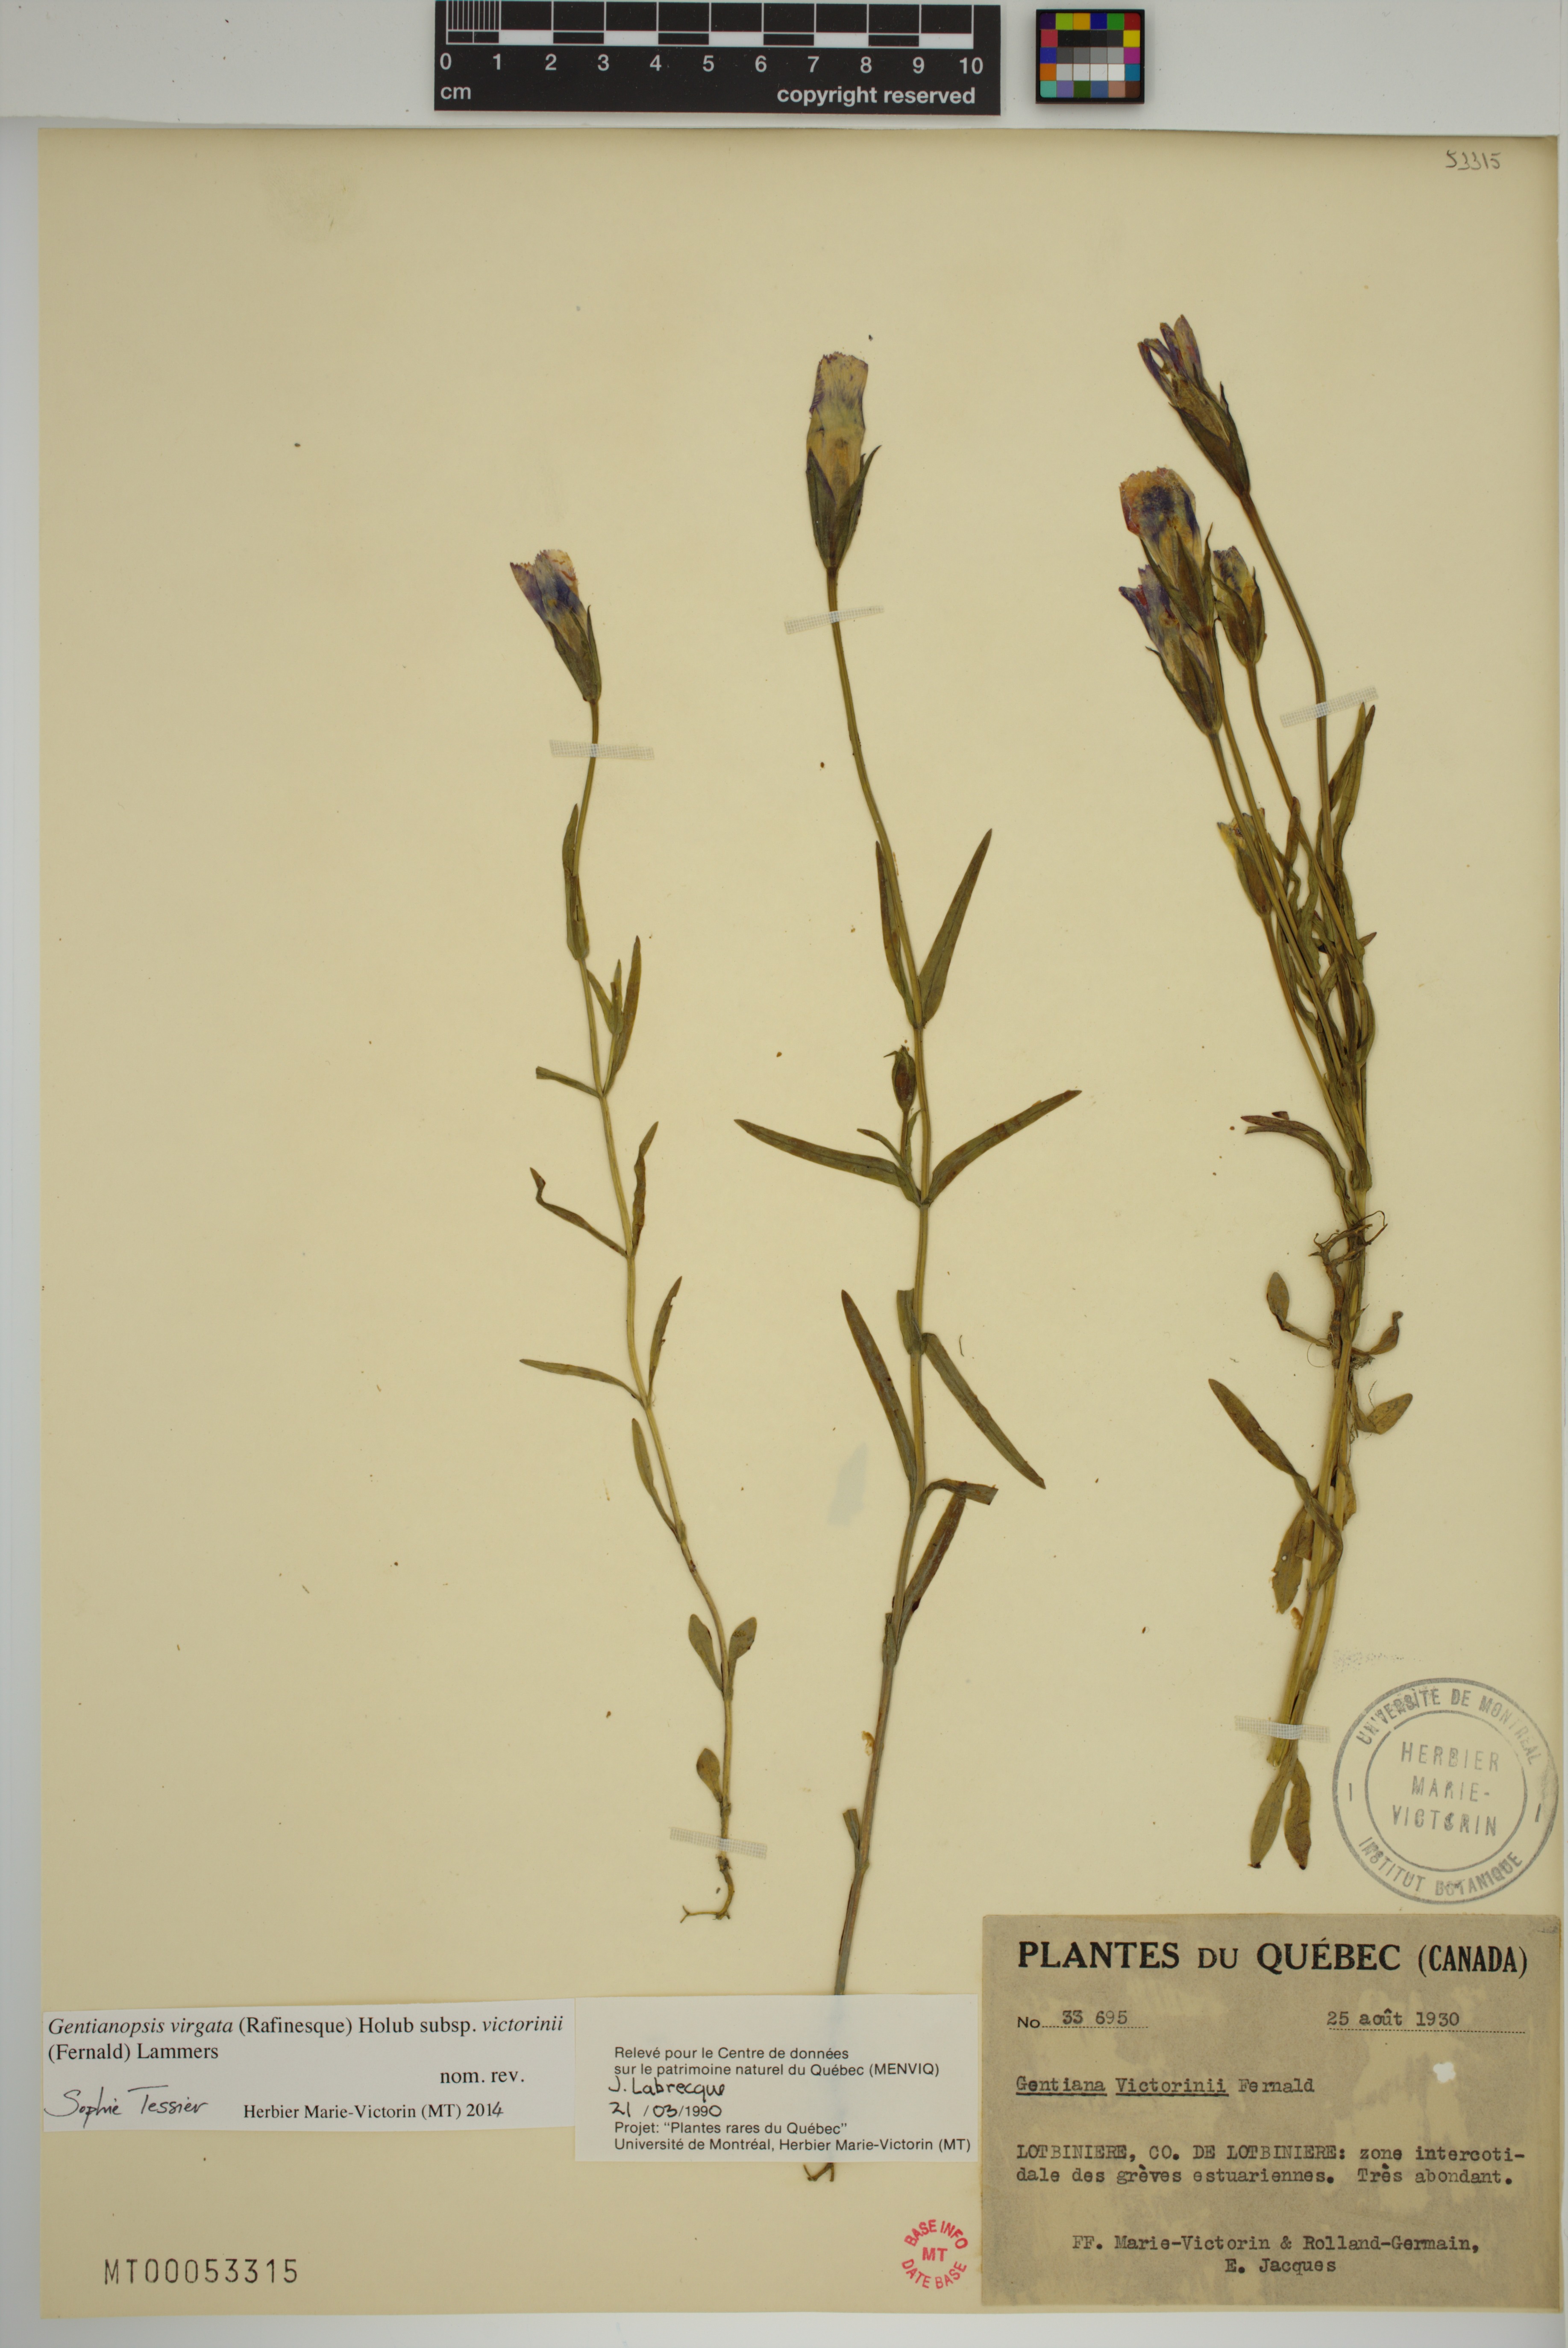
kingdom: Plantae
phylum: Tracheophyta
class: Magnoliopsida
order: Gentianales
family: Gentianaceae
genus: Gentianopsis
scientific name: Gentianopsis victorinii
